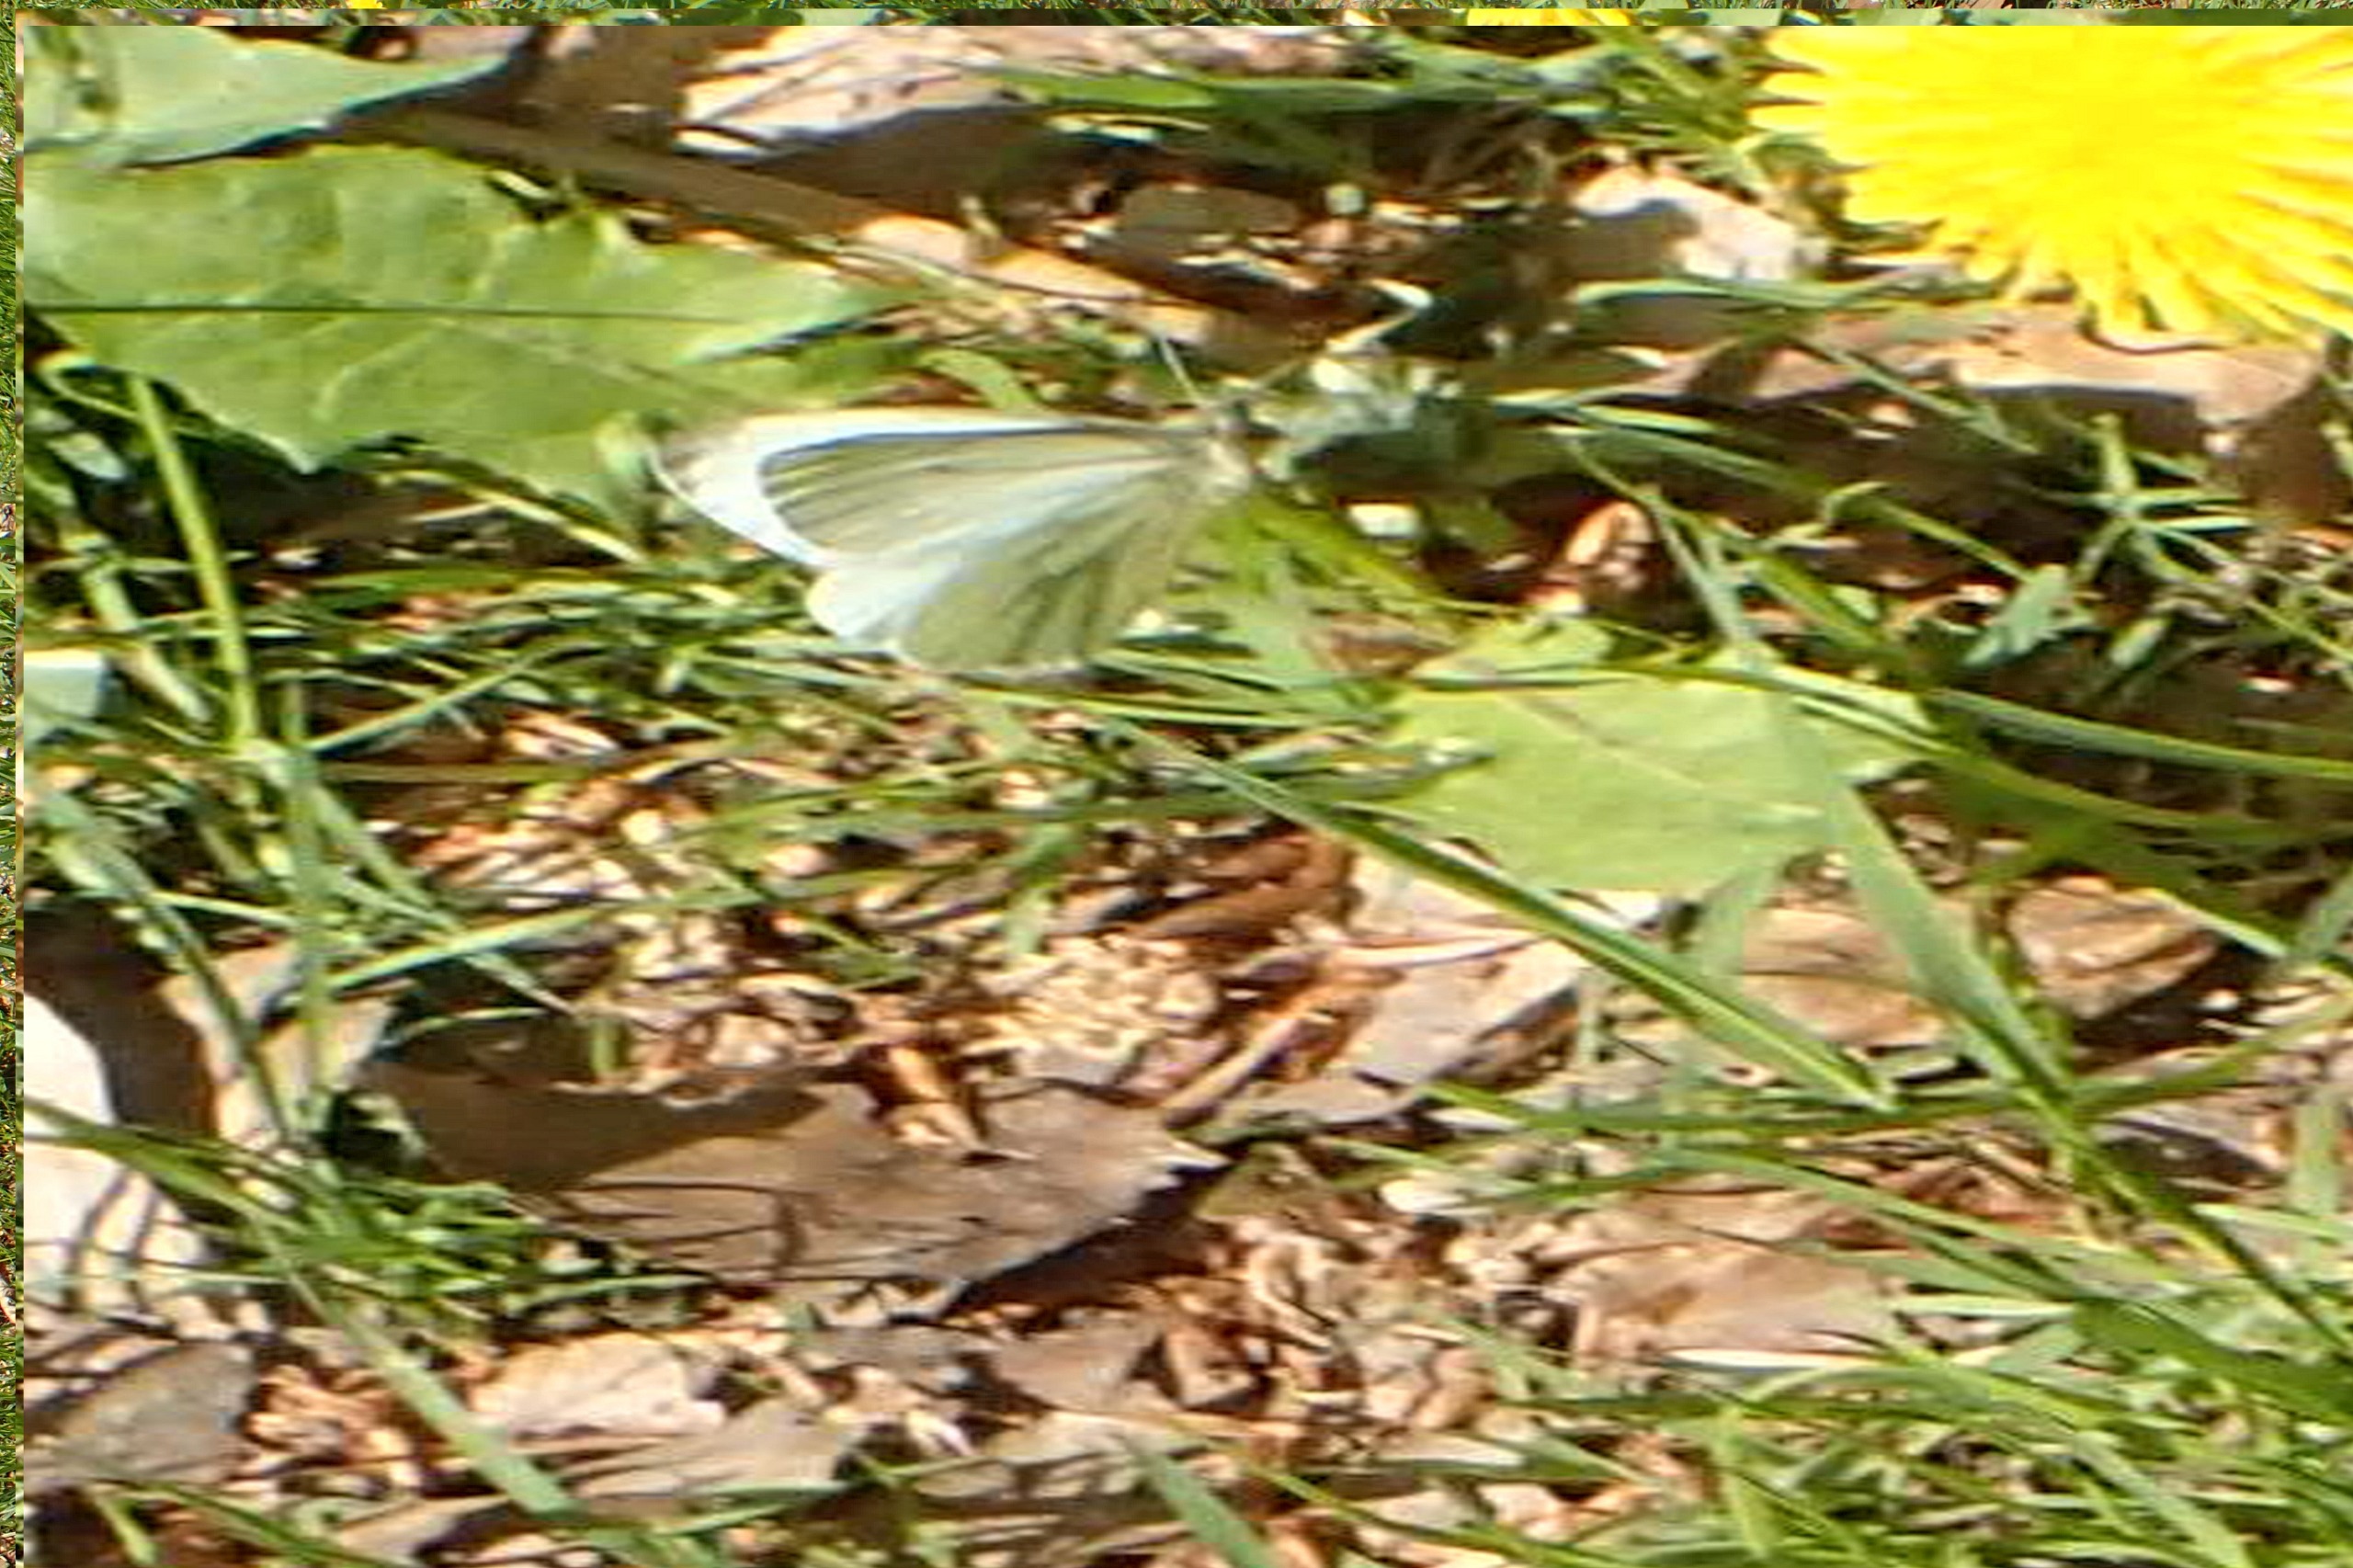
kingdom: Animalia
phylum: Arthropoda
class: Insecta
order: Lepidoptera
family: Pieridae
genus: Pieris
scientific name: Pieris napi
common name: Grønåret kålsommerfugl
